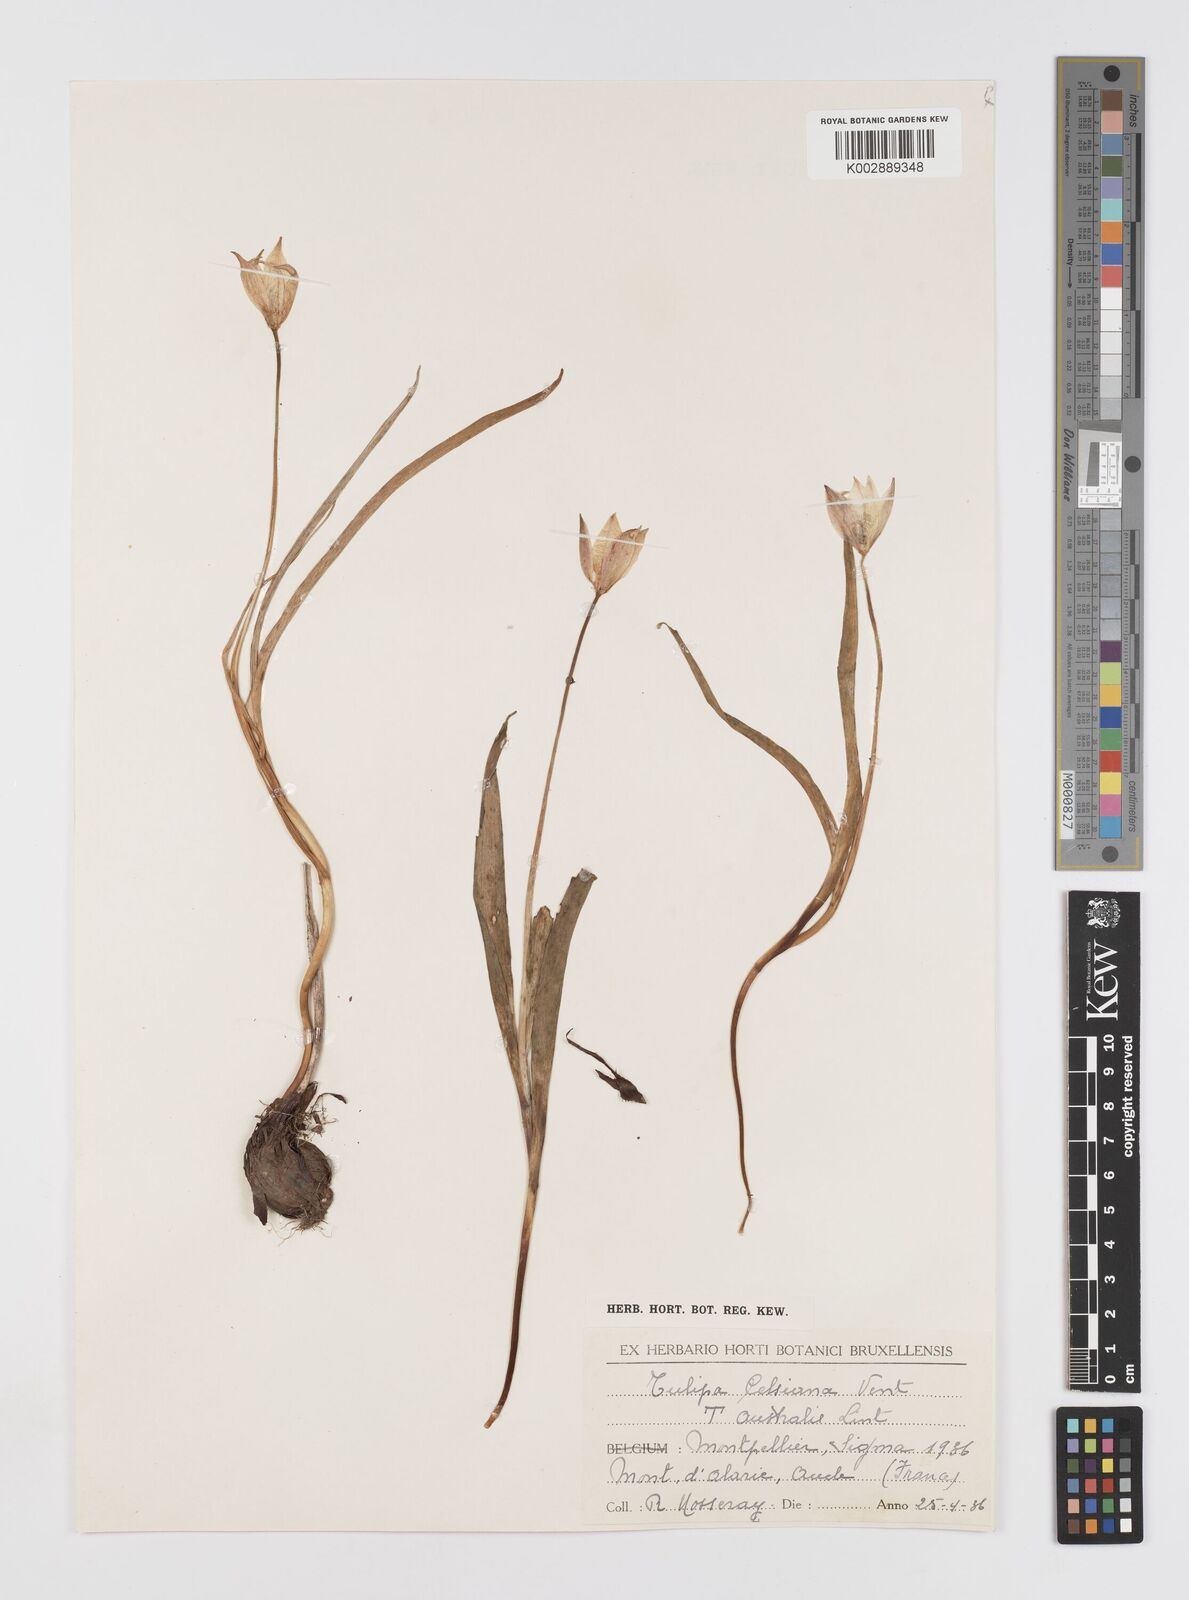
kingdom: Plantae
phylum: Tracheophyta
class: Liliopsida
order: Liliales
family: Liliaceae
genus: Tulipa
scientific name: Tulipa sylvestris
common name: Wild tulip
